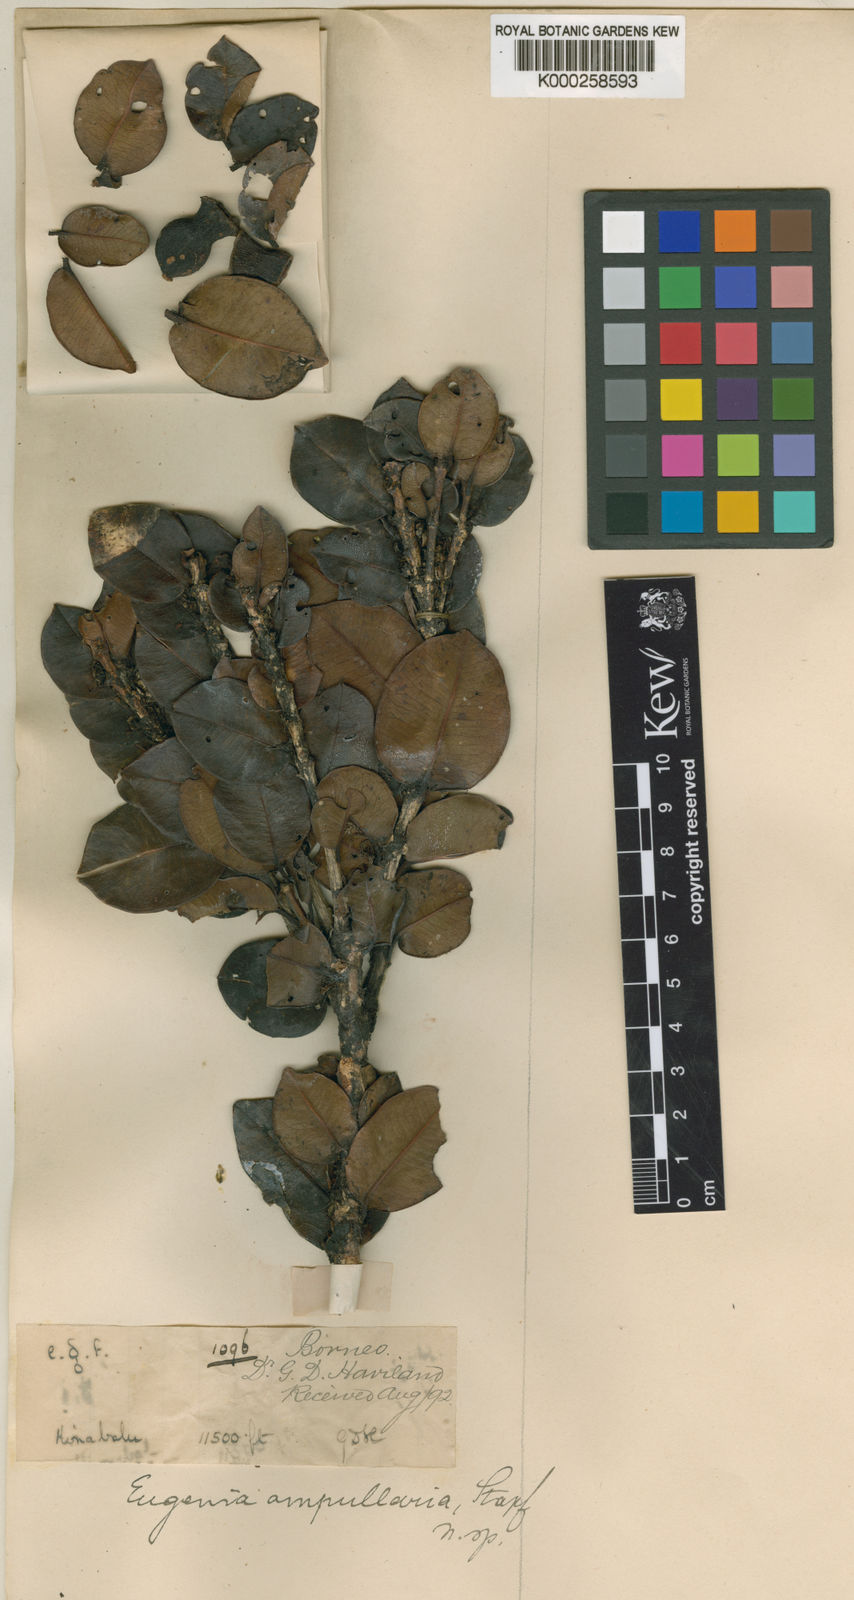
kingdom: Plantae
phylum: Tracheophyta
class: Magnoliopsida
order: Myrtales
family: Myrtaceae
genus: Syzygium
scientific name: Syzygium ampullarium
